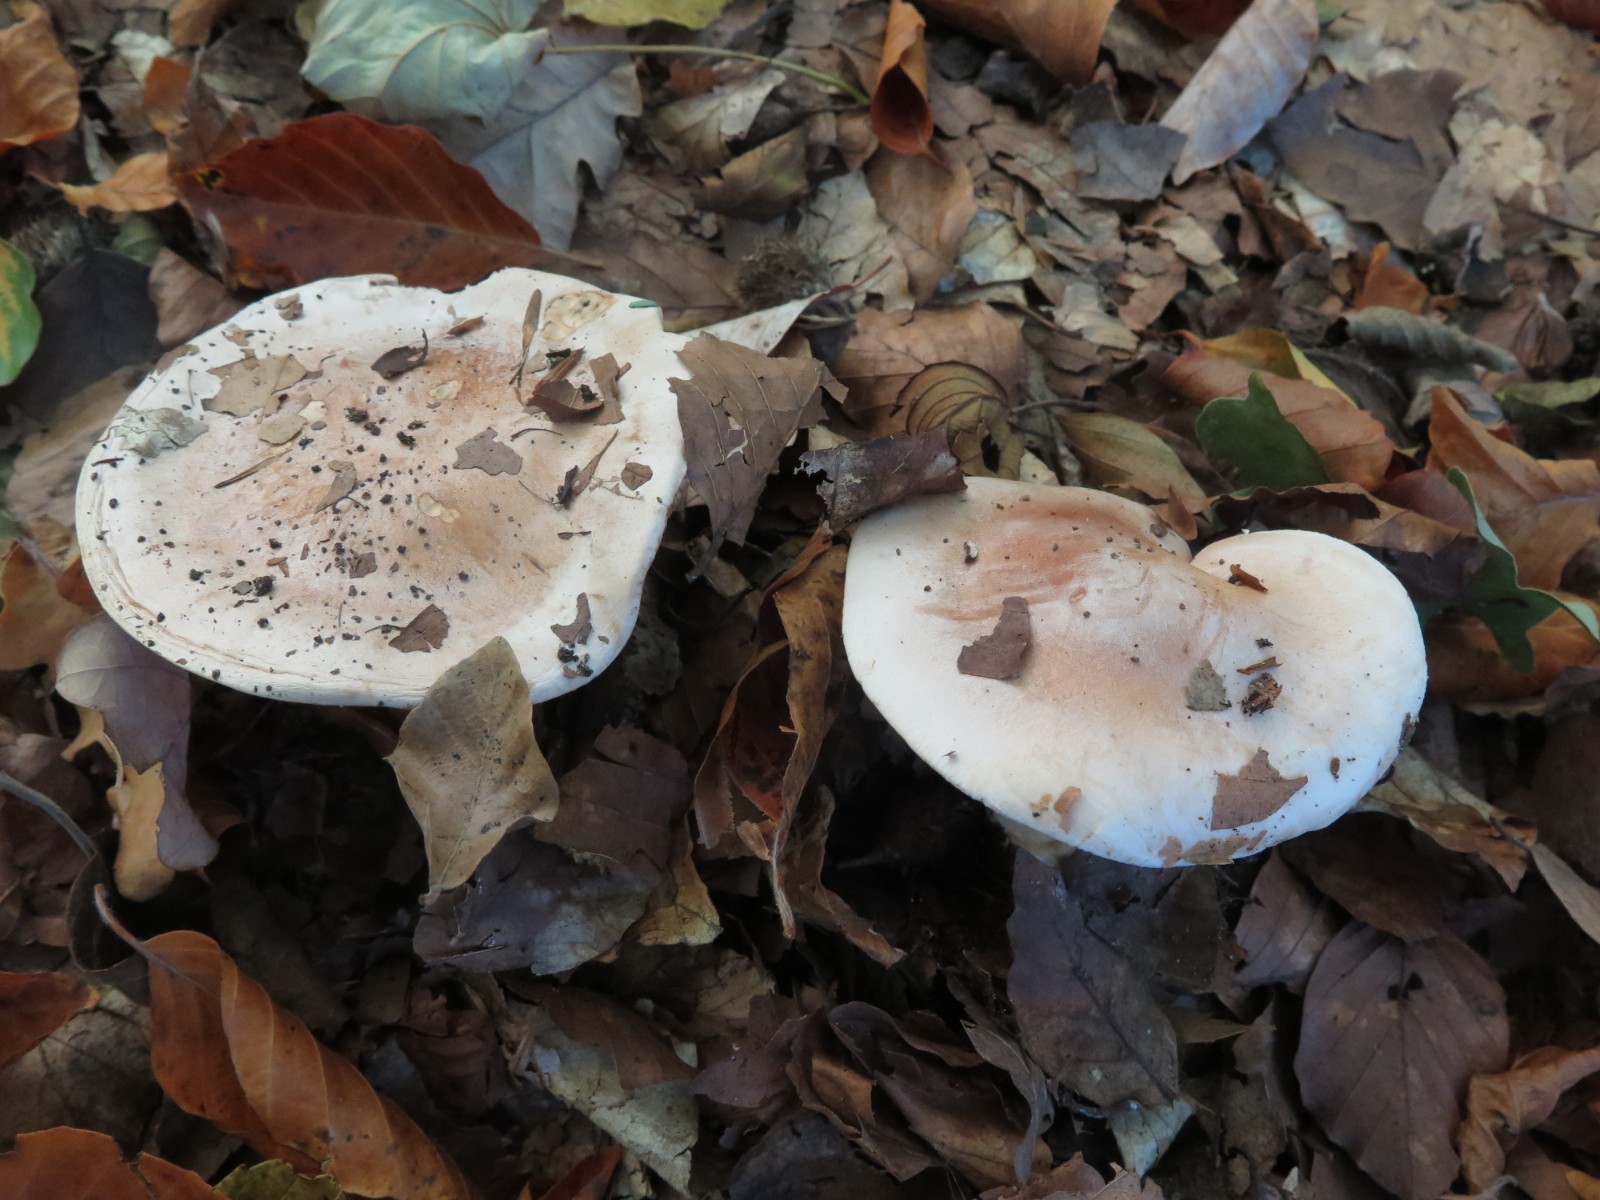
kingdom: Fungi
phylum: Basidiomycota
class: Agaricomycetes
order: Agaricales
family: Hymenogastraceae
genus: Hebeloma
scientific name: Hebeloma sinapizans
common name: ræddike-tåreblad
